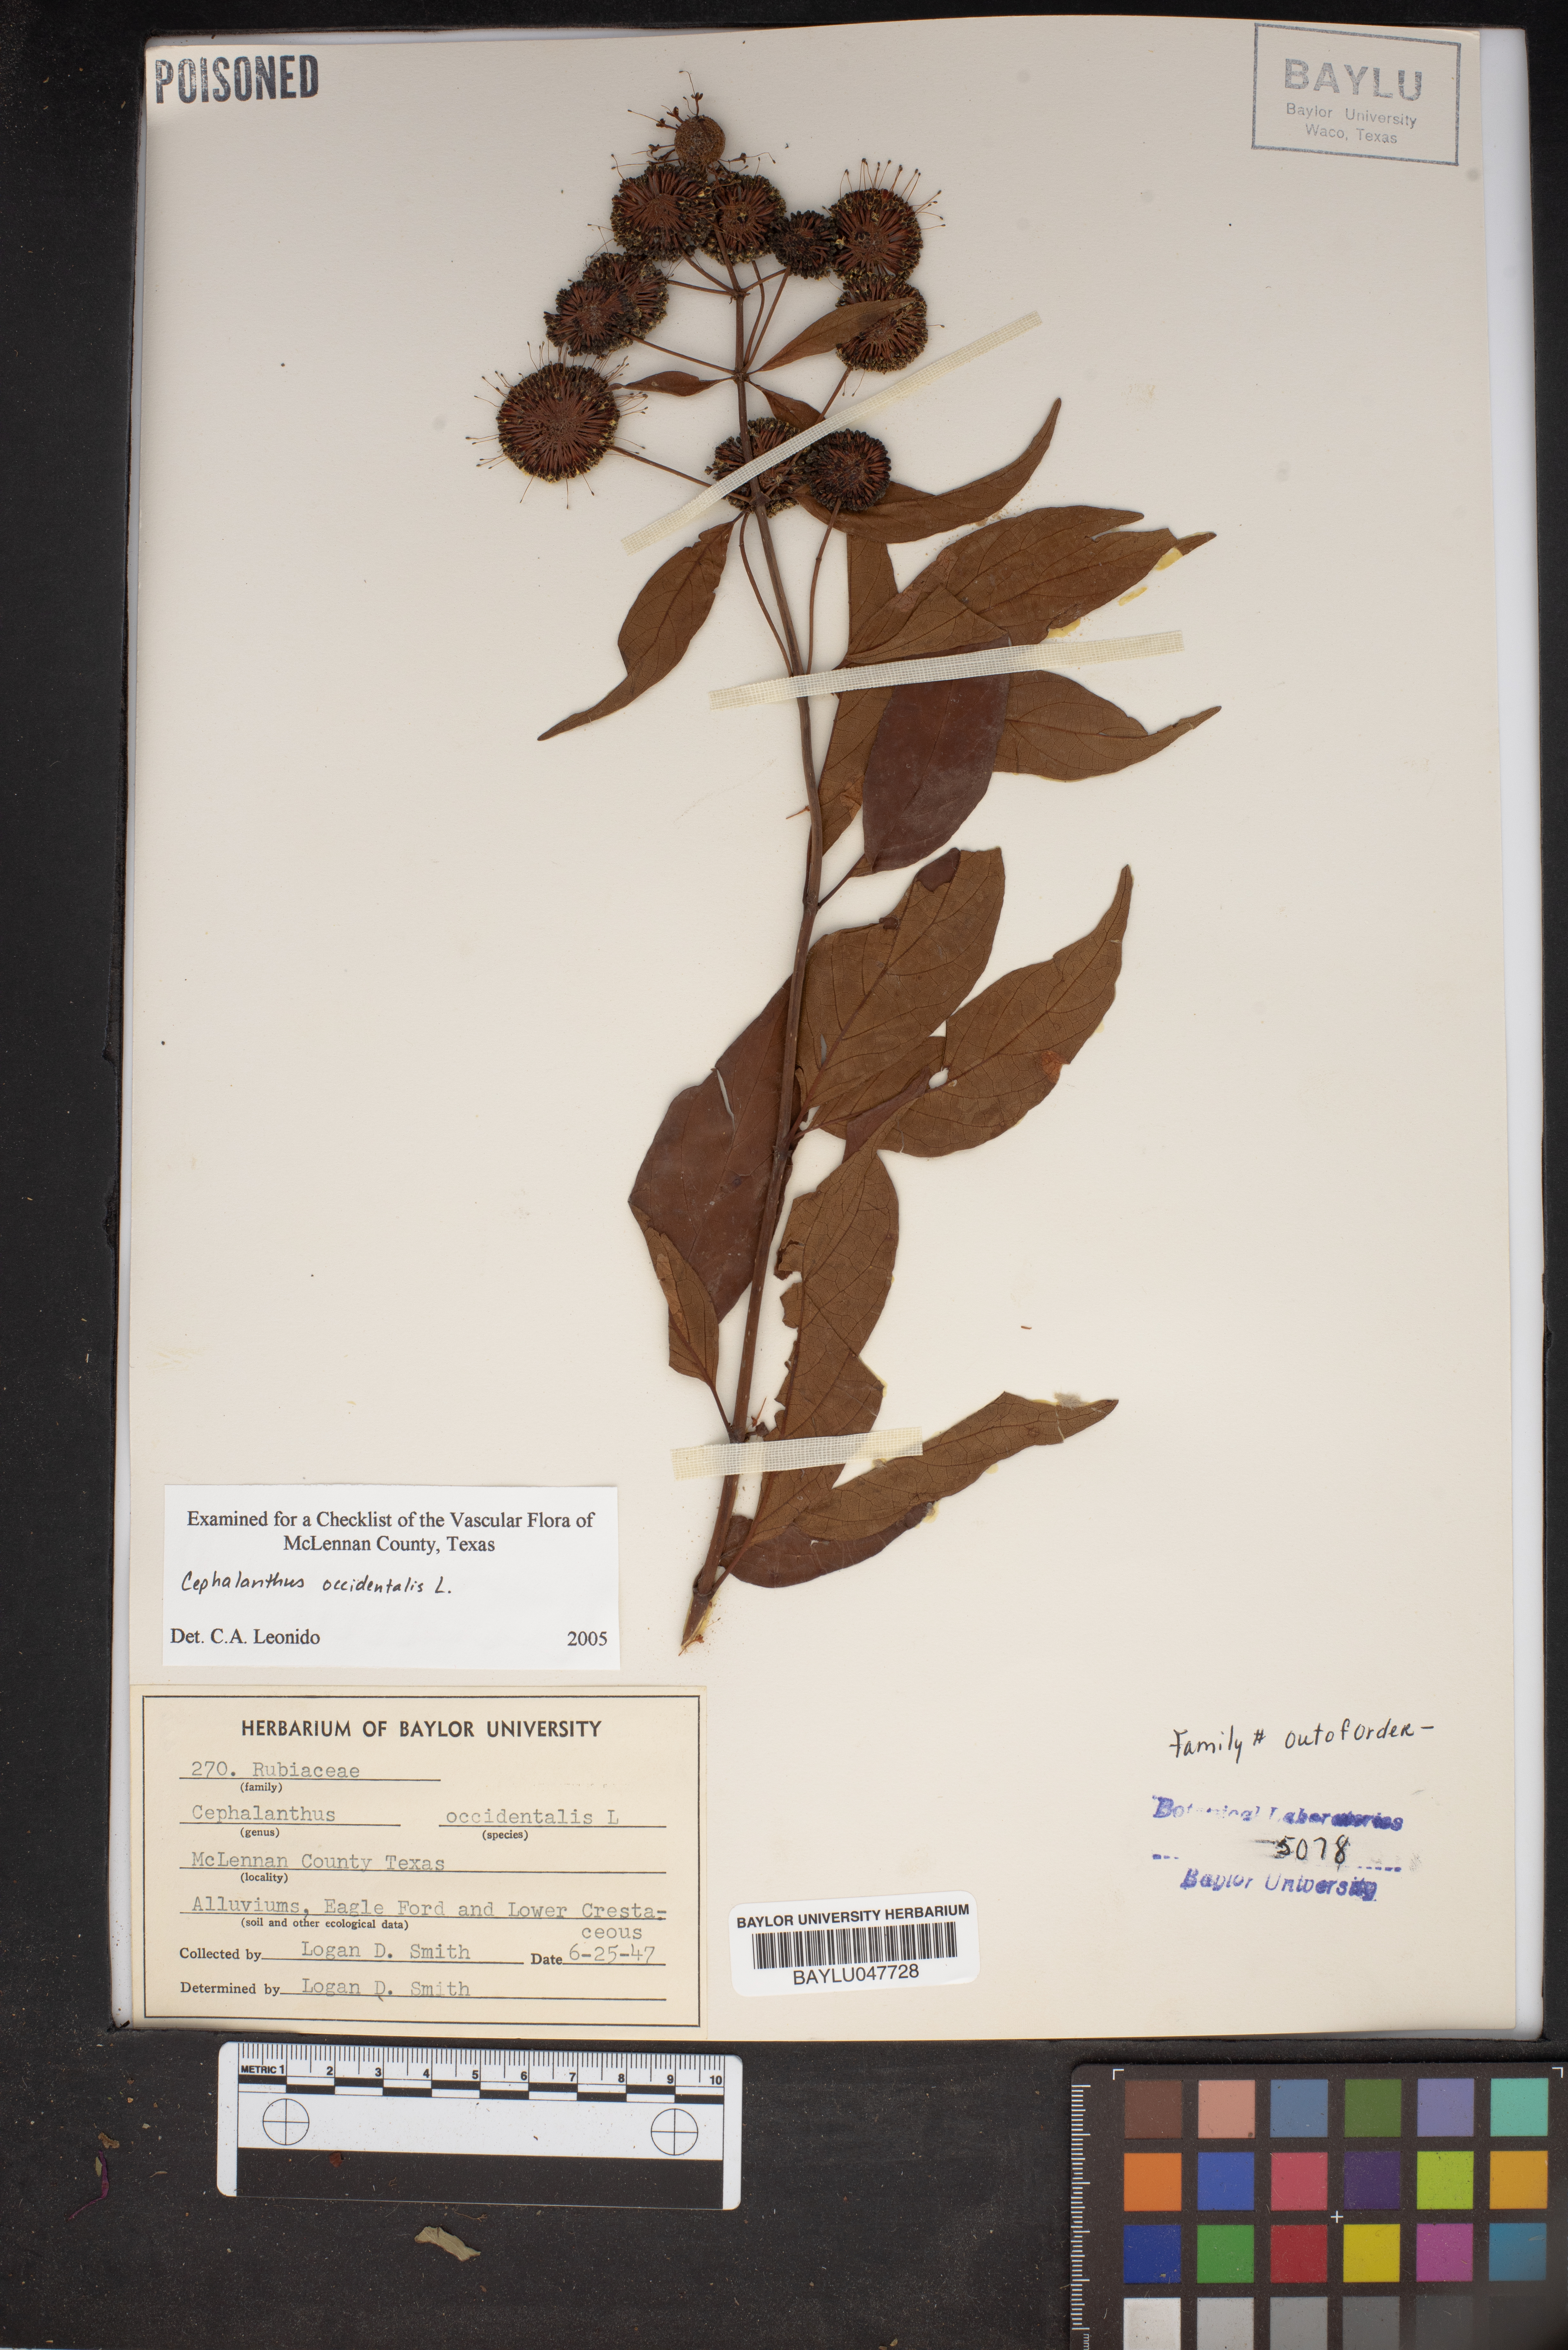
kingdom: Plantae
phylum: Tracheophyta
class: Magnoliopsida
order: Gentianales
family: Rubiaceae
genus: Cephalanthus
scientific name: Cephalanthus occidentalis
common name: Button-willow
